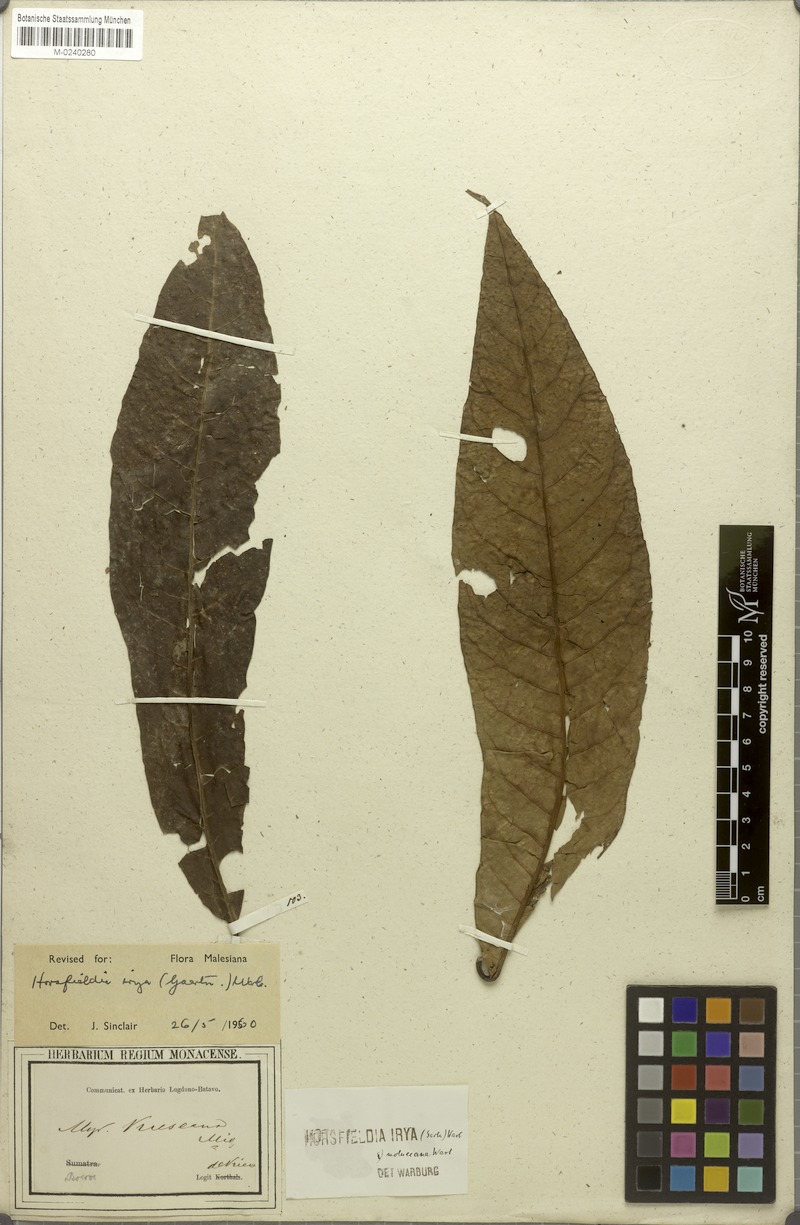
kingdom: Plantae
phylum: Tracheophyta
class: Magnoliopsida
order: Magnoliales
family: Myristicaceae
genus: Horsfieldia
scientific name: Horsfieldia irya
